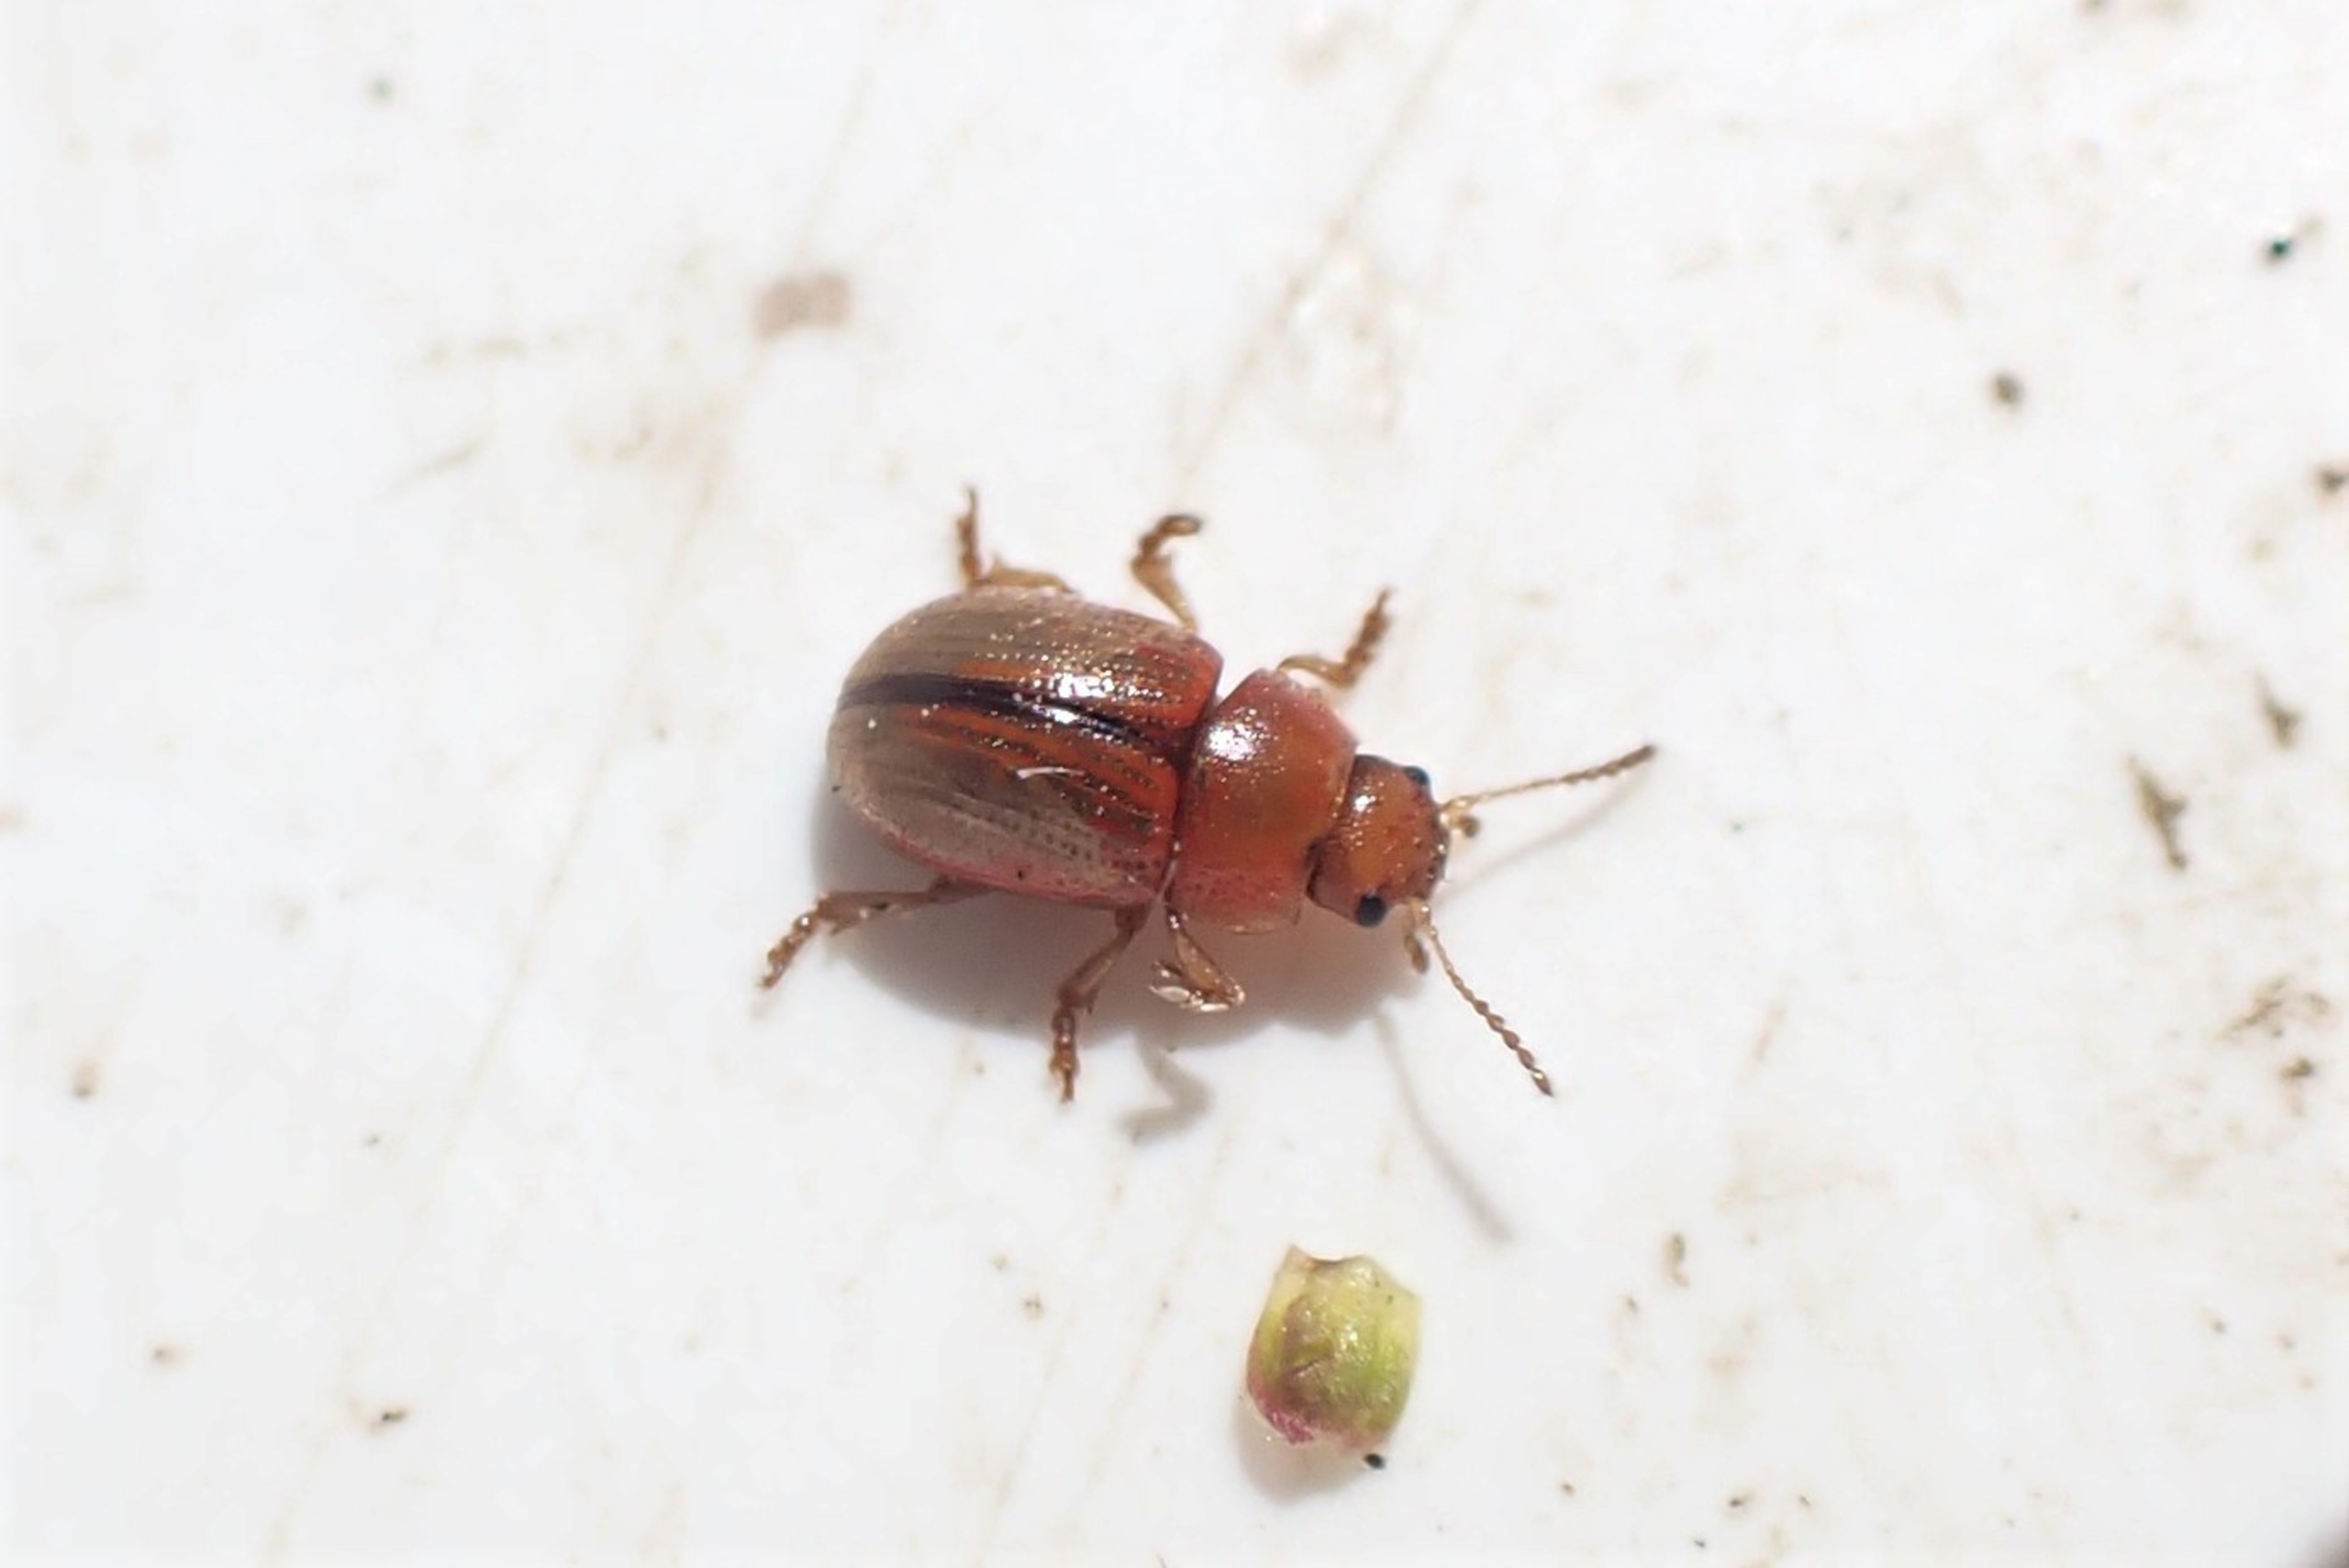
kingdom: Animalia
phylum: Arthropoda
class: Insecta
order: Coleoptera
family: Chrysomelidae
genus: Gonioctena
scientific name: Gonioctena olivacea
